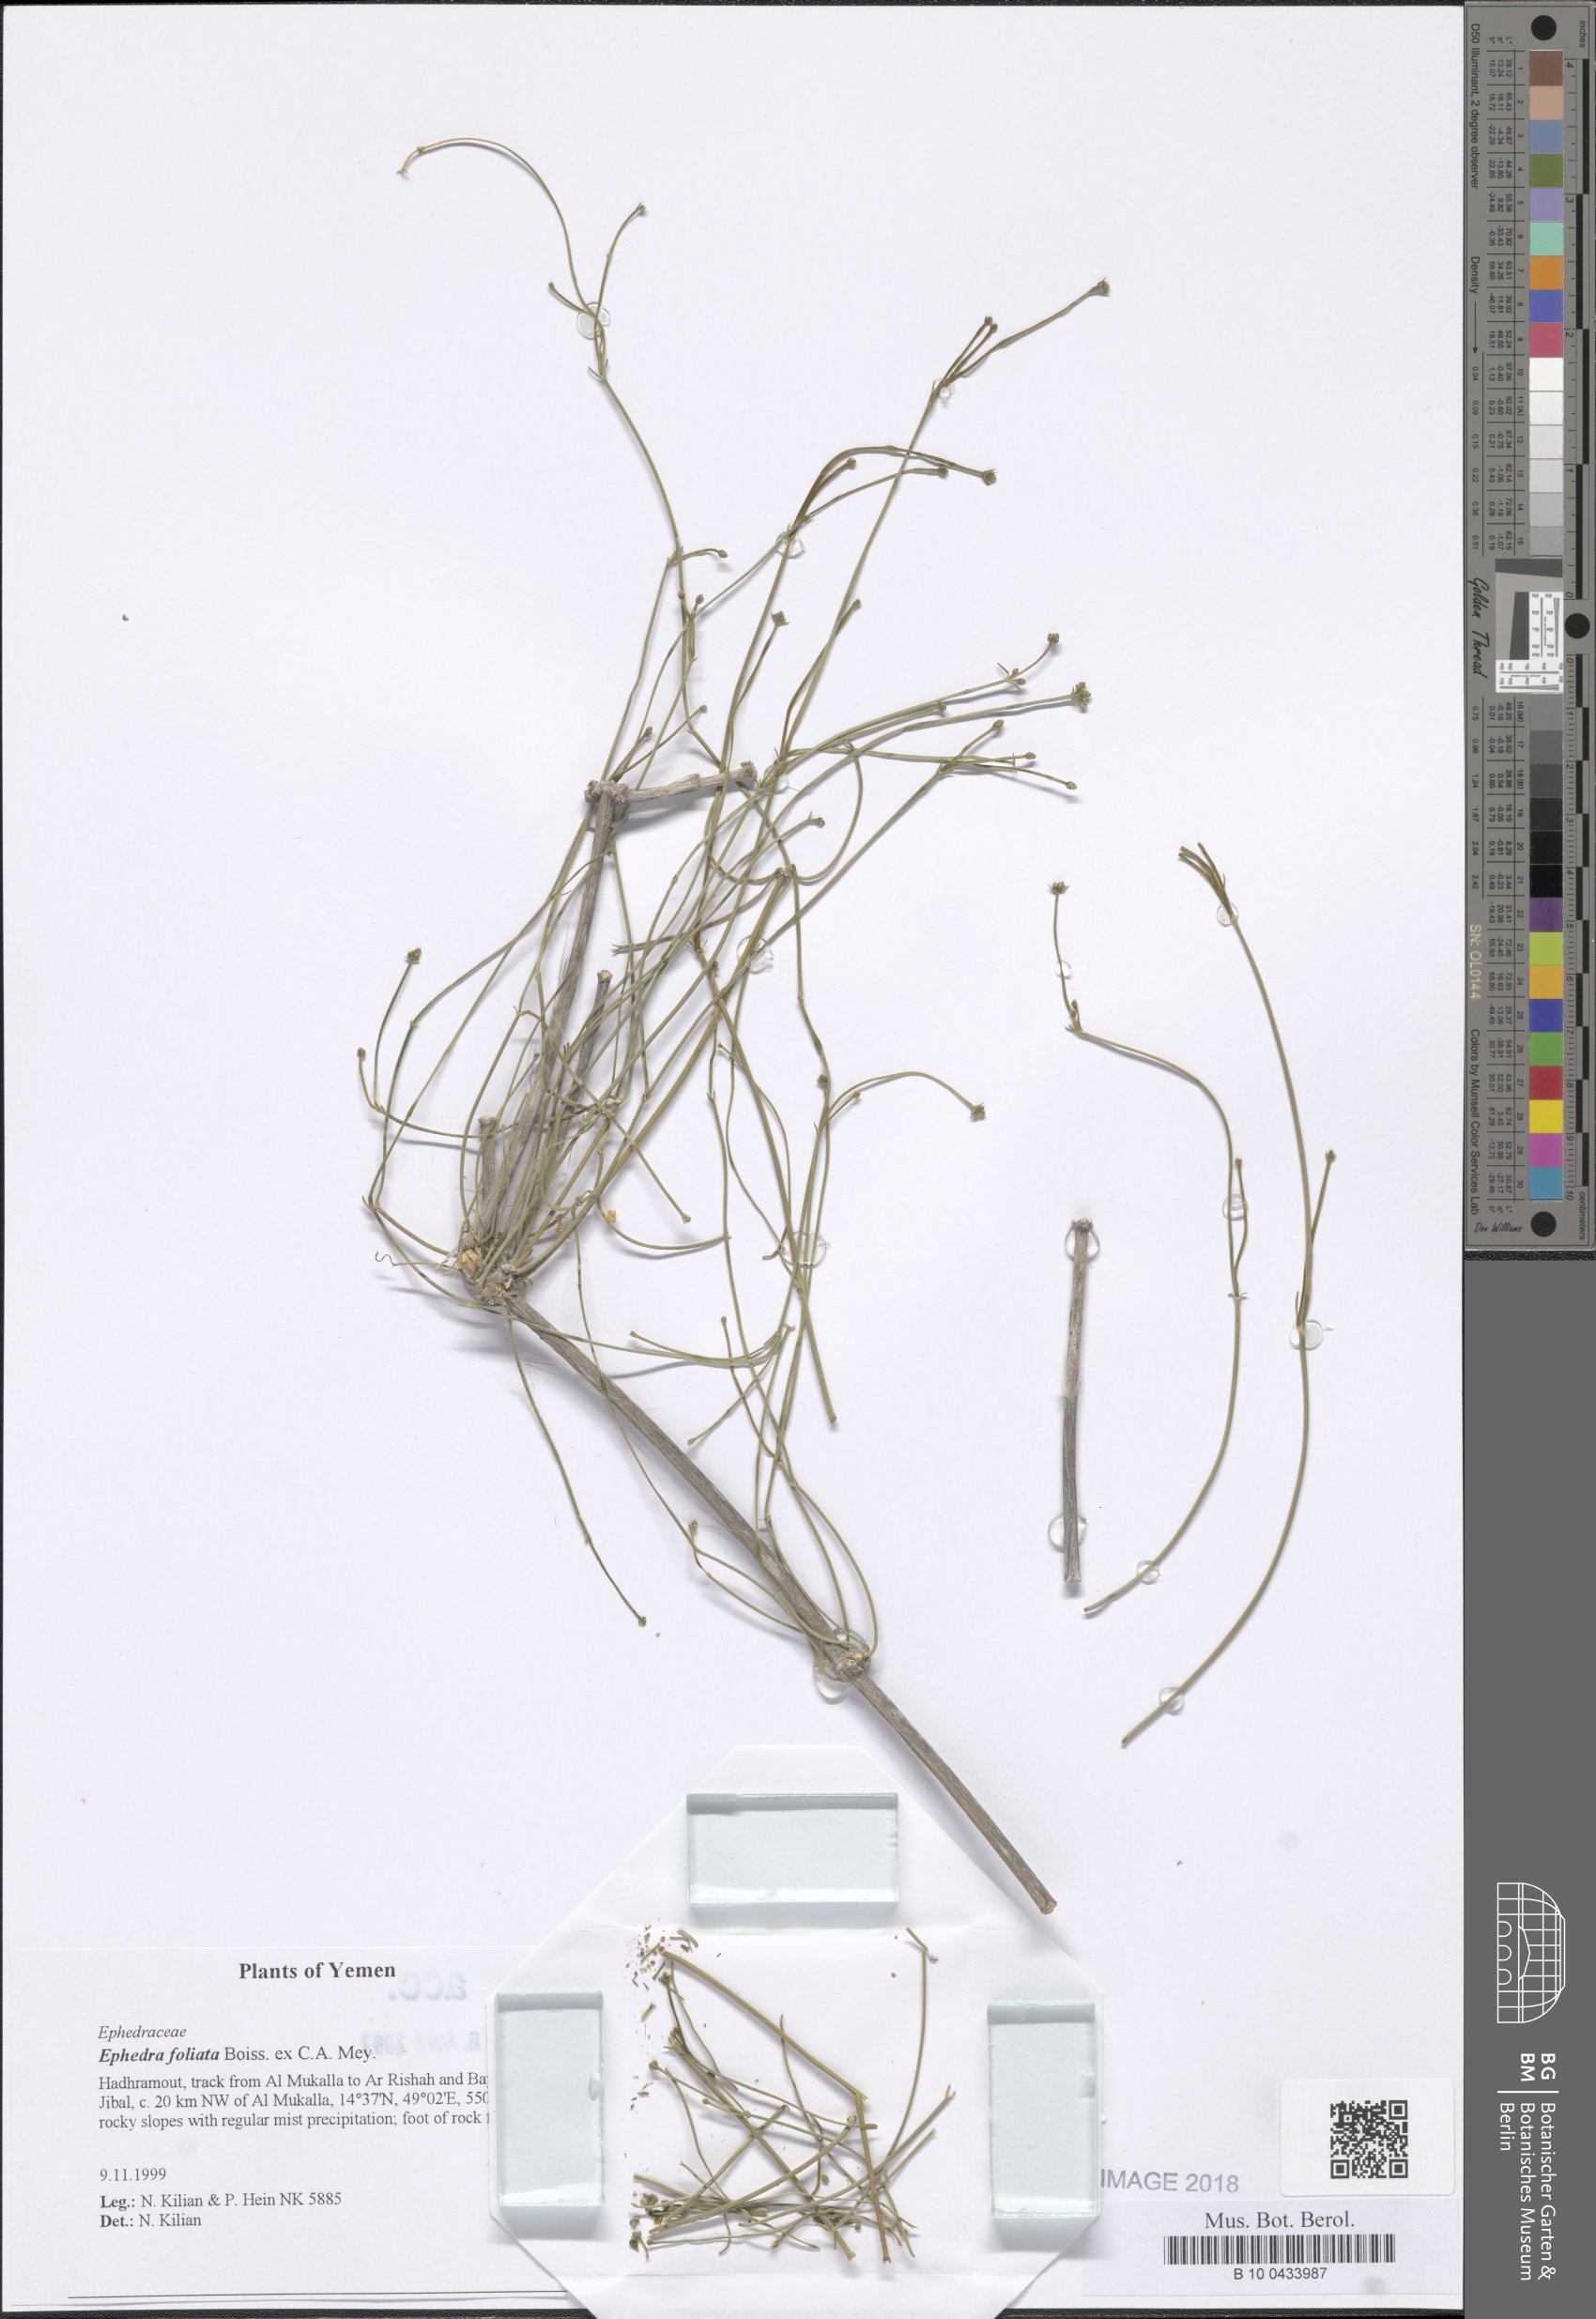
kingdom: Plantae
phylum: Tracheophyta
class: Gnetopsida
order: Ephedrales
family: Ephedraceae
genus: Ephedra
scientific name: Ephedra ciliata
